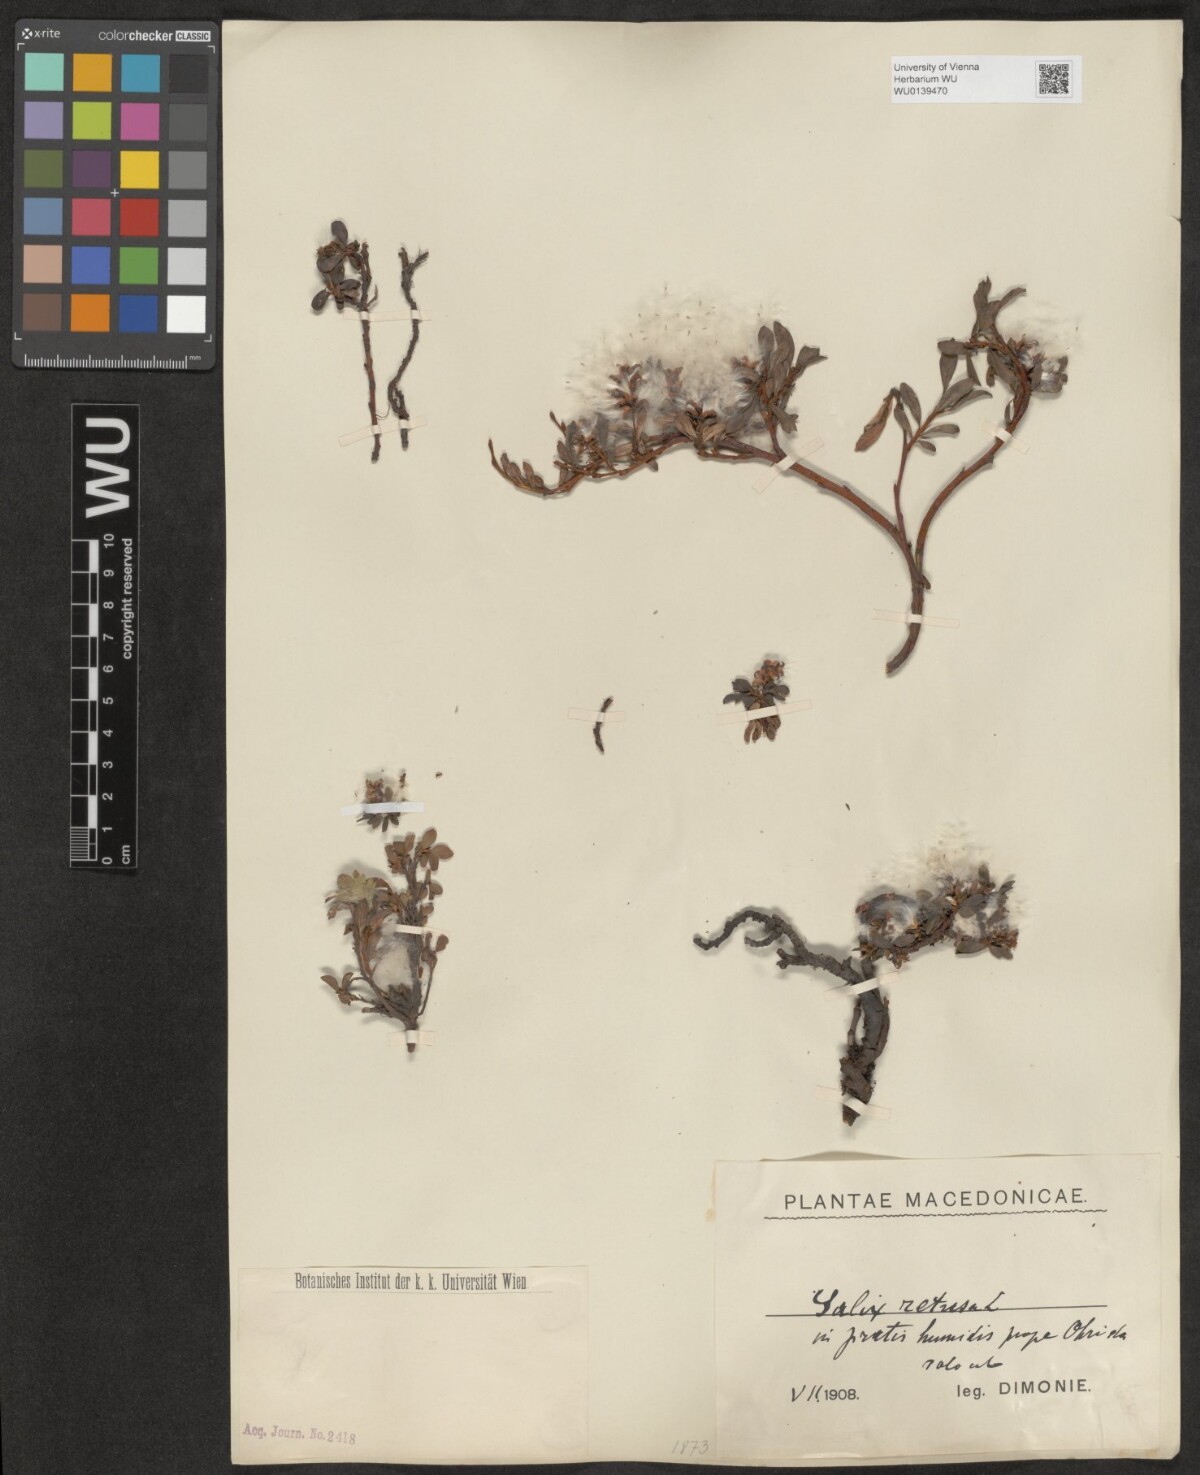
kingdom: Plantae
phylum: Tracheophyta
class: Magnoliopsida
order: Malpighiales
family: Salicaceae
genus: Salix
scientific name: Salix retusa
